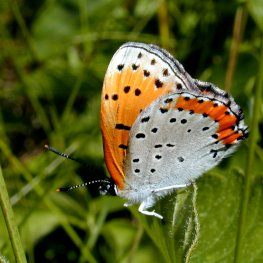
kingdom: Animalia
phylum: Arthropoda
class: Insecta
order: Lepidoptera
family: Sesiidae
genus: Sesia
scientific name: Sesia Lycaena hyllus
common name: Bronze Copper
